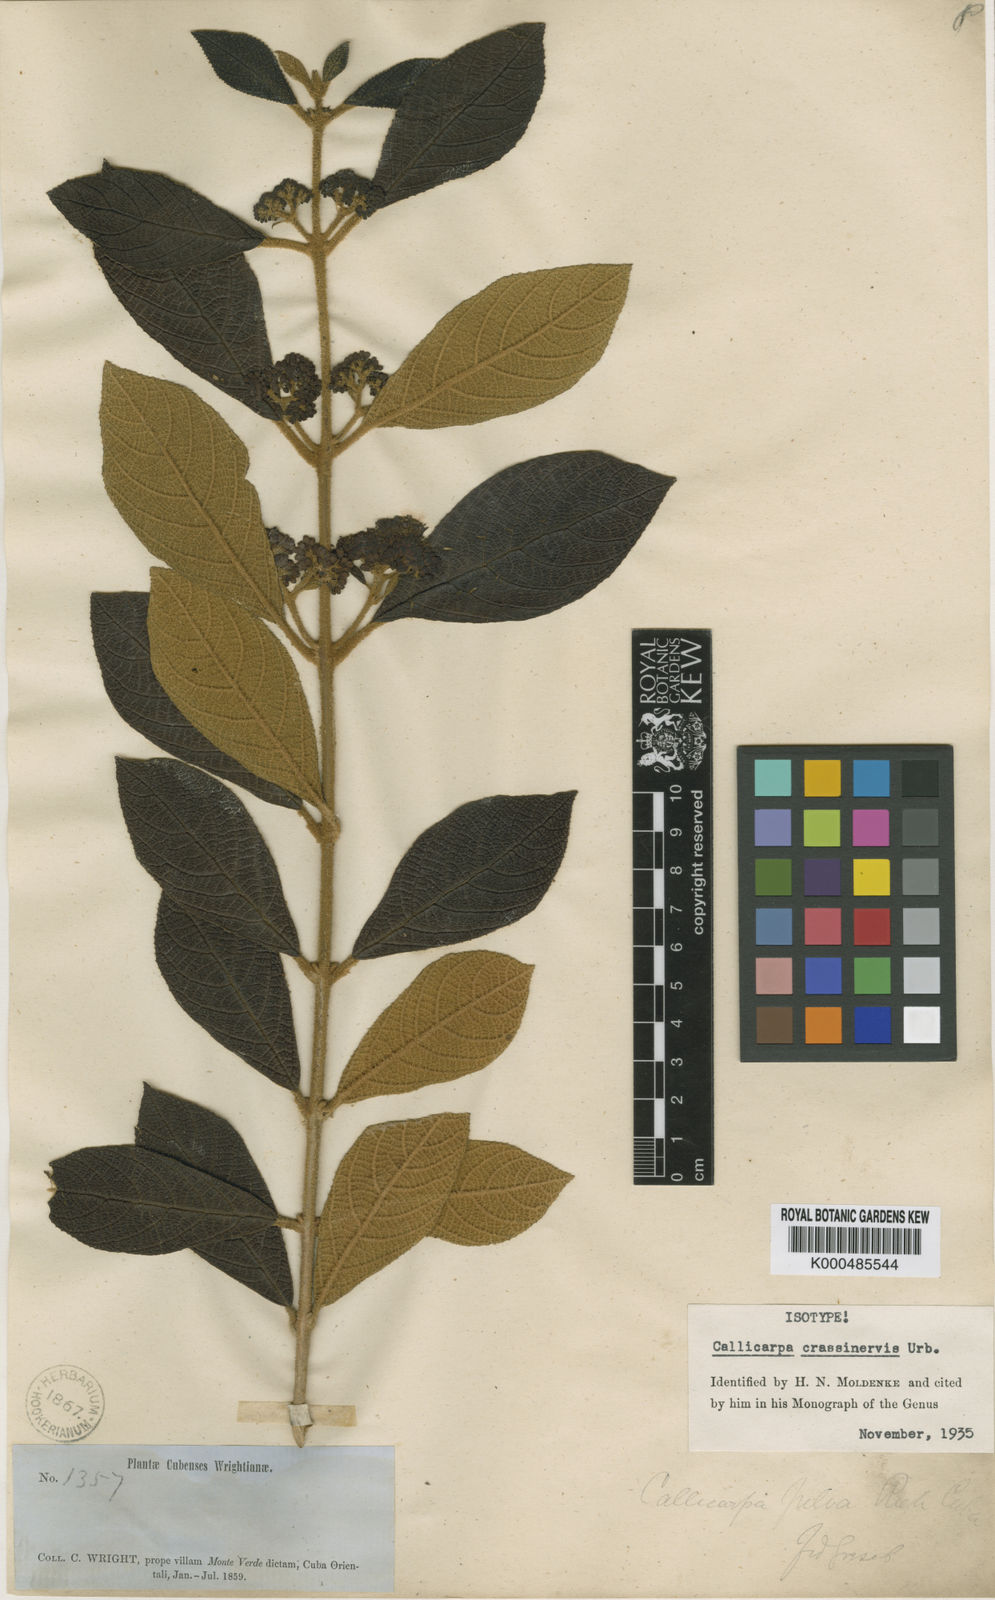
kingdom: Plantae
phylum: Tracheophyta
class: Magnoliopsida
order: Lamiales
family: Lamiaceae
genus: Callicarpa
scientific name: Callicarpa crassinervis
